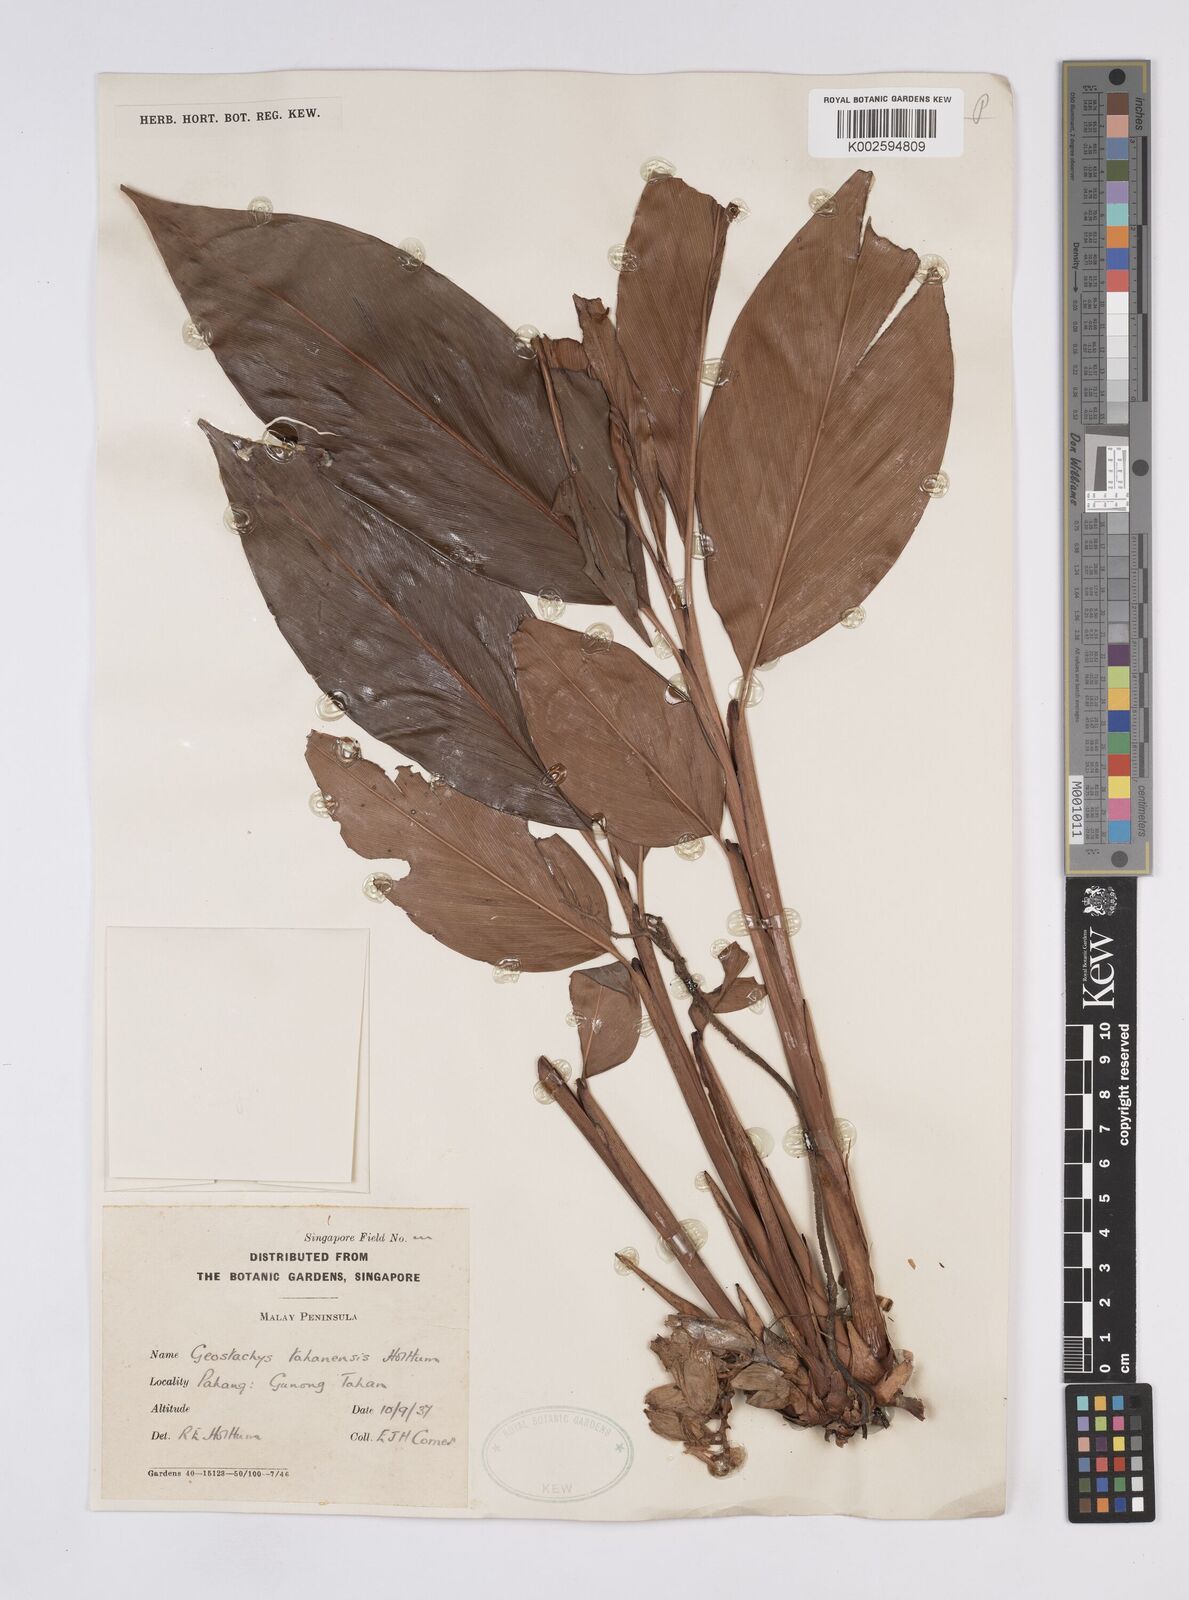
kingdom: Plantae
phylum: Tracheophyta
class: Liliopsida
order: Zingiberales
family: Zingiberaceae
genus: Geostachys
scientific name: Geostachys tahanensis
